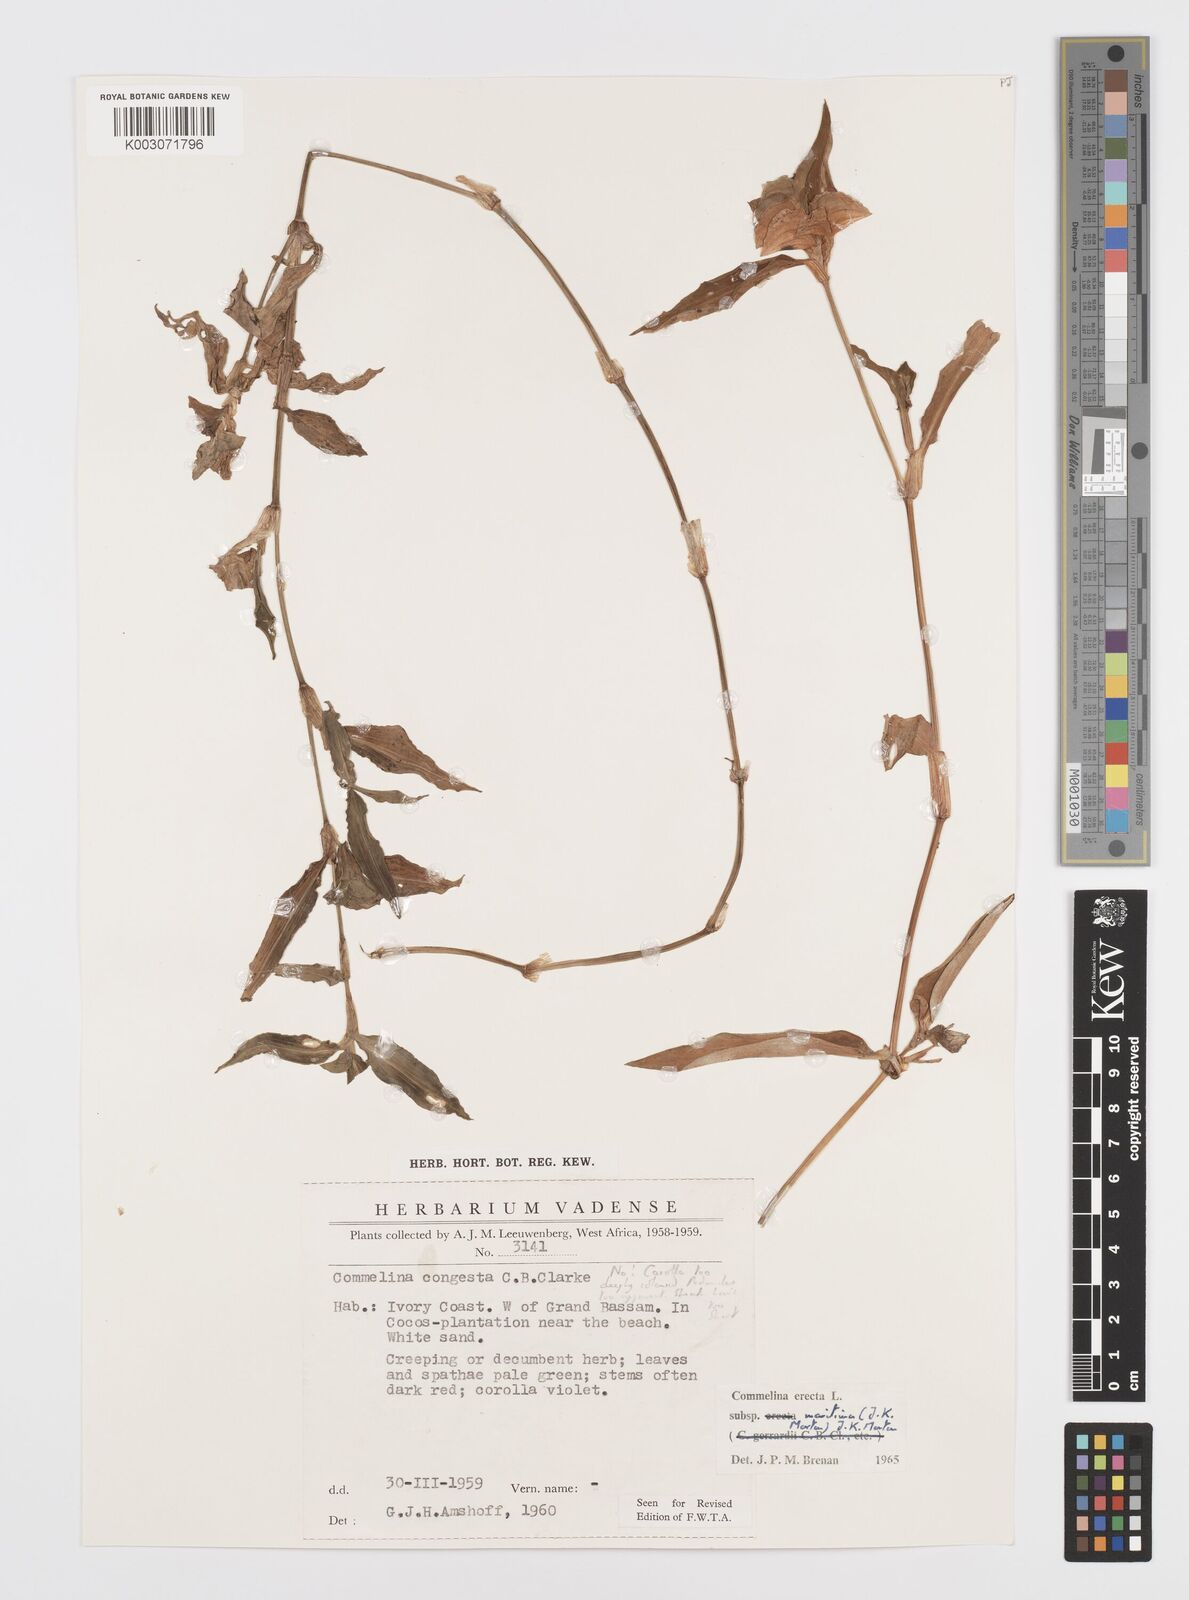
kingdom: Plantae
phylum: Tracheophyta
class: Liliopsida
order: Commelinales
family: Commelinaceae
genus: Commelina
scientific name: Commelina erecta
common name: Blousel blommetjie
